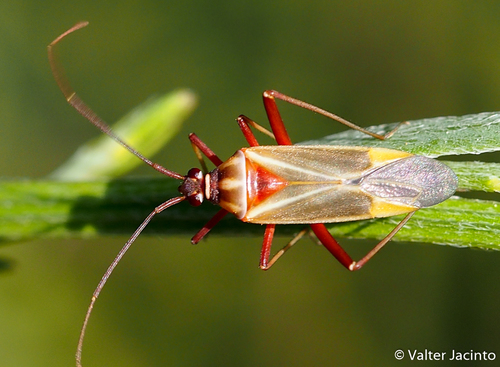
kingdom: Animalia
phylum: Arthropoda
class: Insecta
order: Hemiptera
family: Miridae
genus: Hadrodemus
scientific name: Hadrodemus noualhieri
